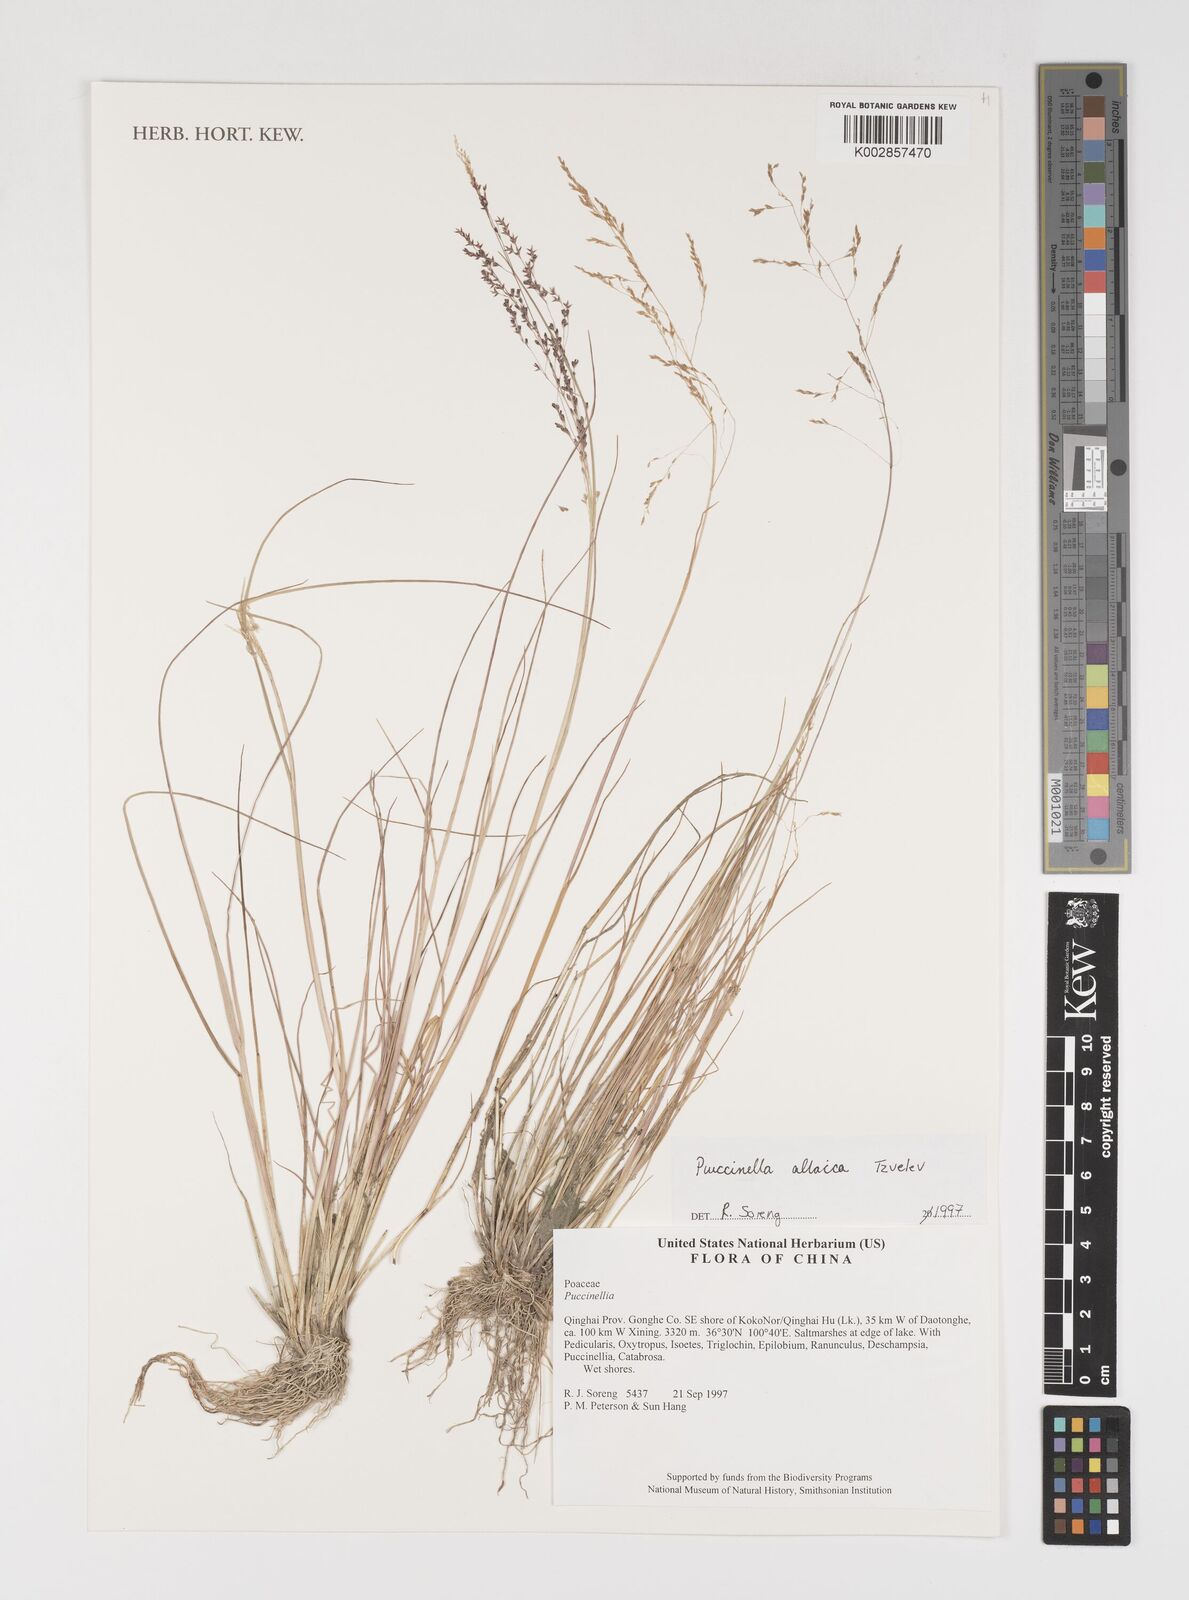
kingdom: Plantae
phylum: Tracheophyta
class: Liliopsida
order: Poales
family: Poaceae
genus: Puccinellia
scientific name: Puccinellia altaica
